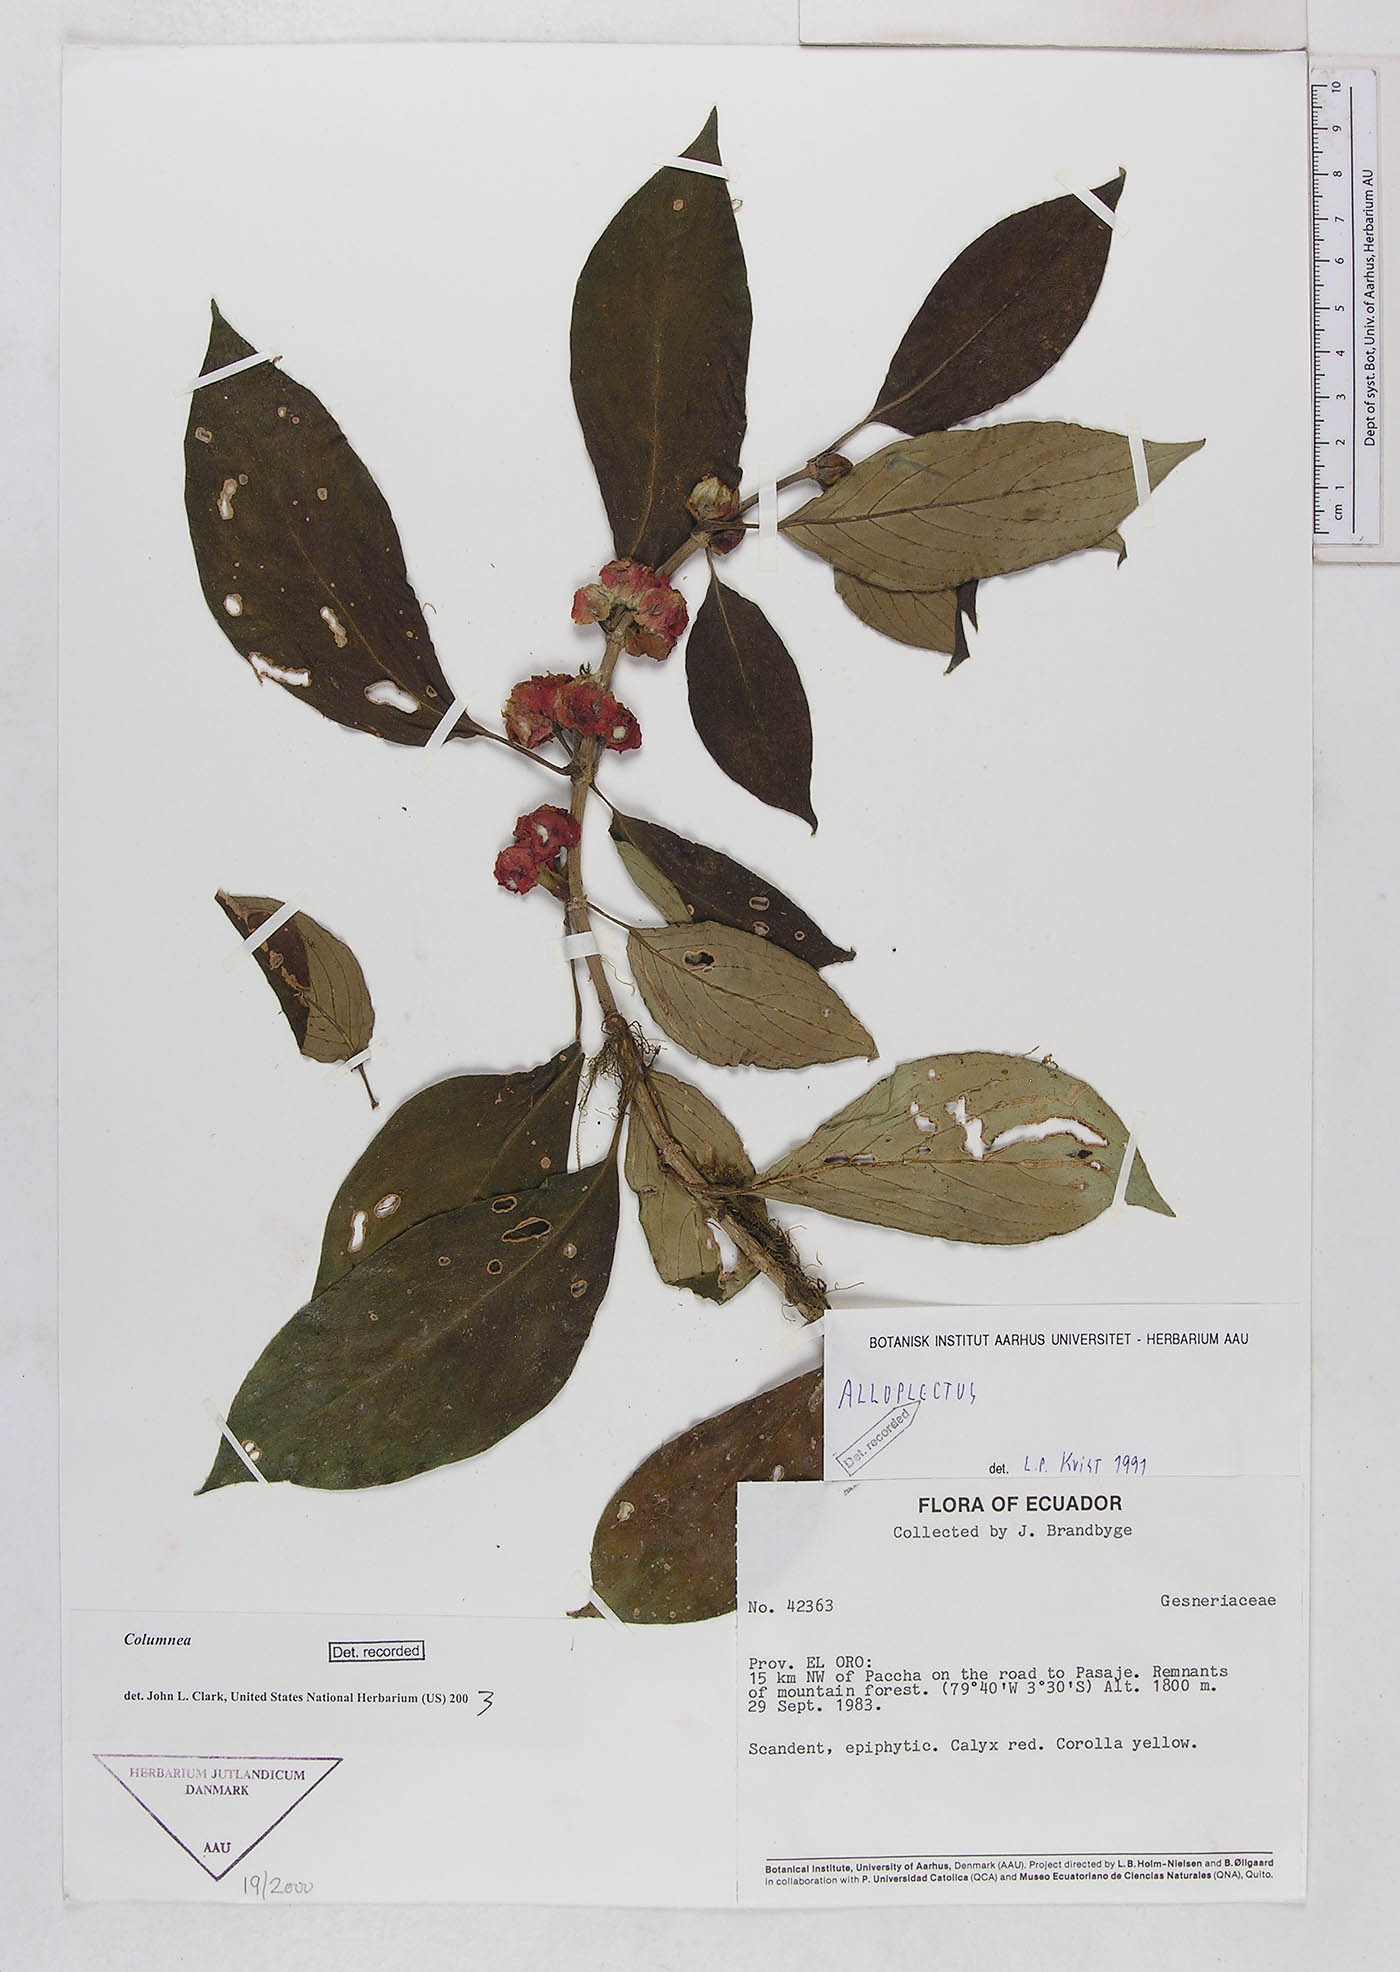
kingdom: Plantae
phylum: Tracheophyta
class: Magnoliopsida
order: Lamiales
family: Gesneriaceae
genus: Columnea
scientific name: Columnea
